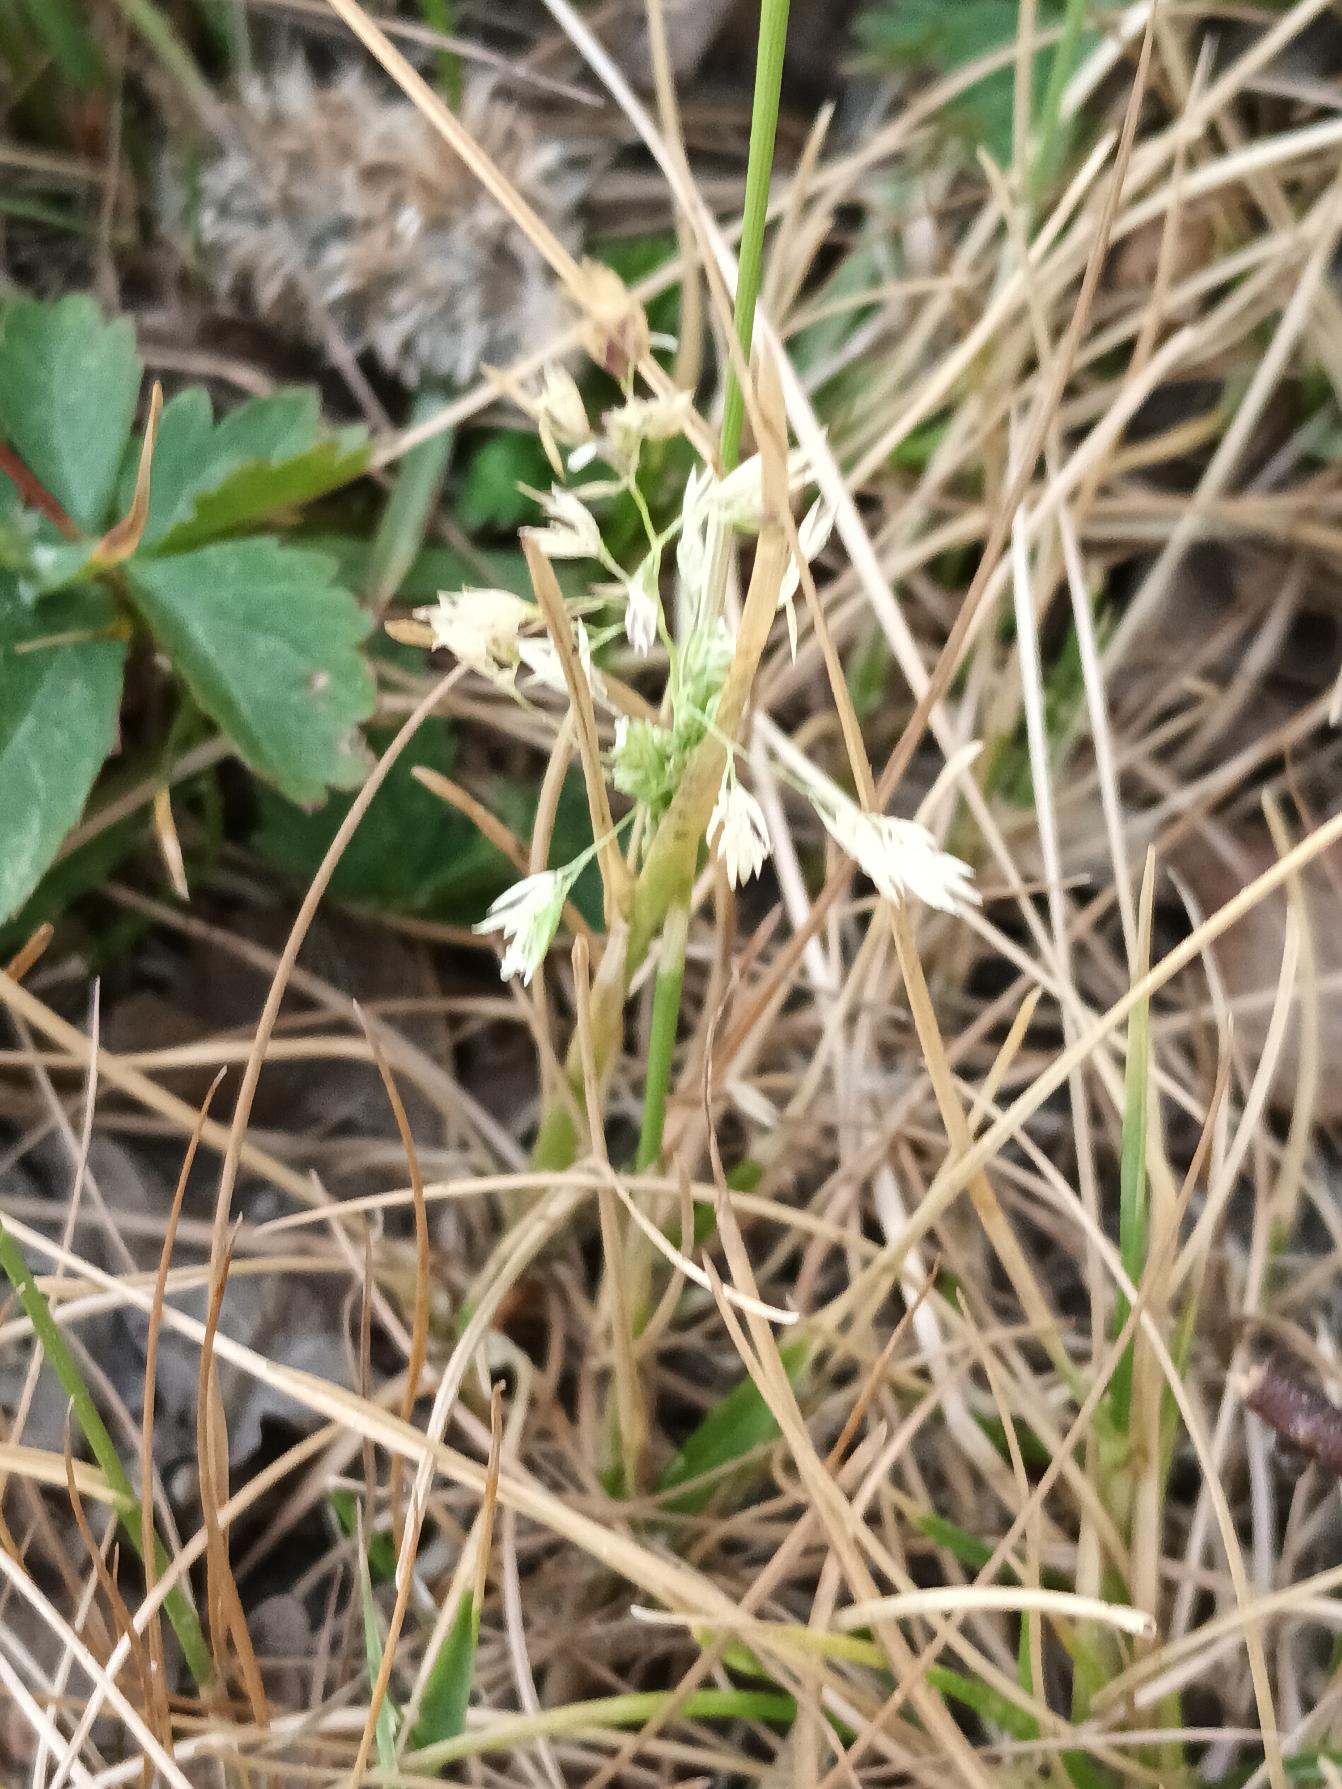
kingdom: Plantae
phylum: Tracheophyta
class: Liliopsida
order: Poales
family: Poaceae
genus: Poa
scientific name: Poa annua
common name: Enårig rapgræs
